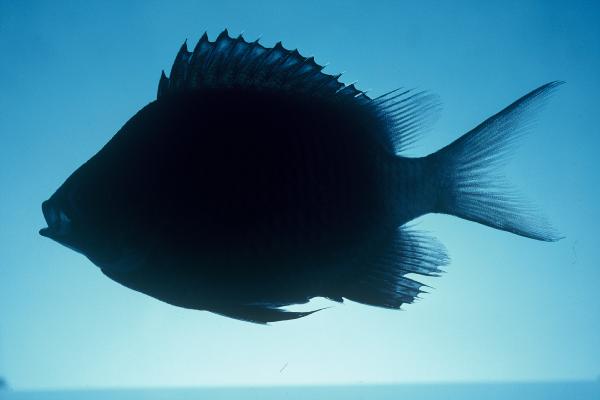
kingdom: Animalia
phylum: Chordata
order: Perciformes
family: Pomacentridae
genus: Stegastes
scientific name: Stegastes limbatus
